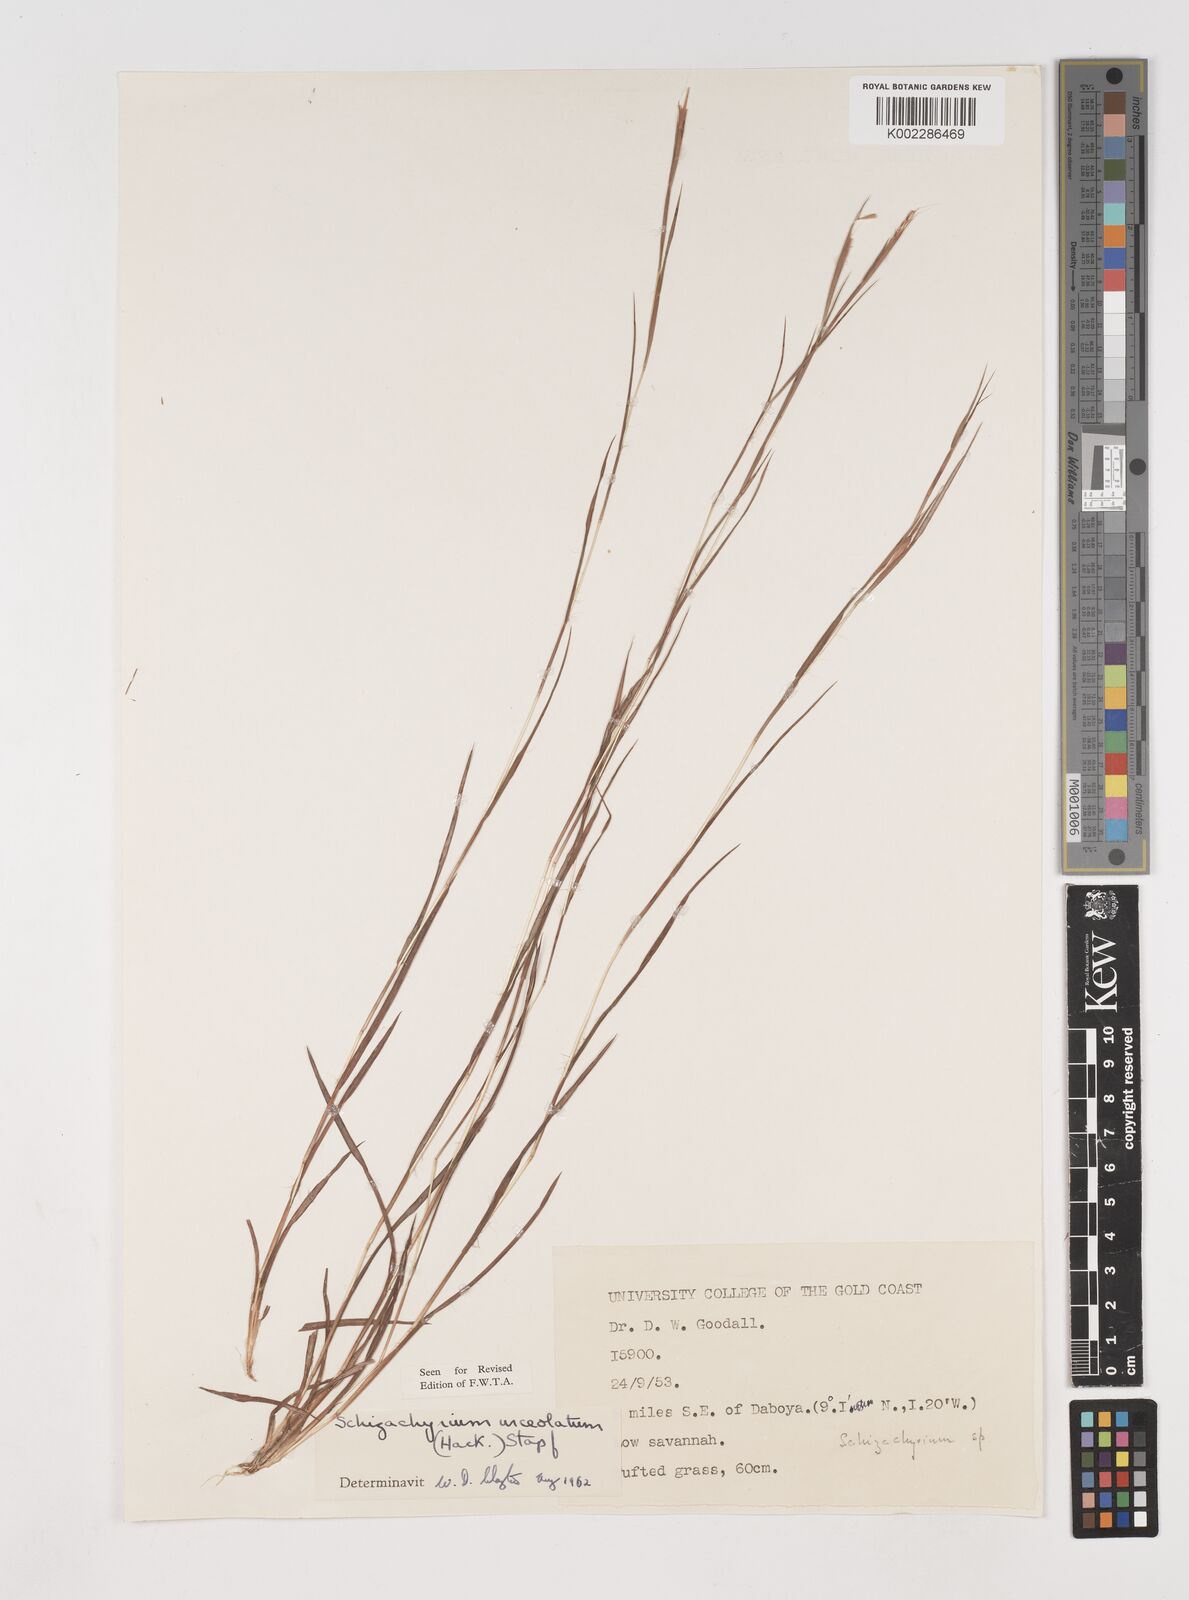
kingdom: Plantae
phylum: Tracheophyta
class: Liliopsida
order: Poales
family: Poaceae
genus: Schizachyrium
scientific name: Schizachyrium urceolatum
